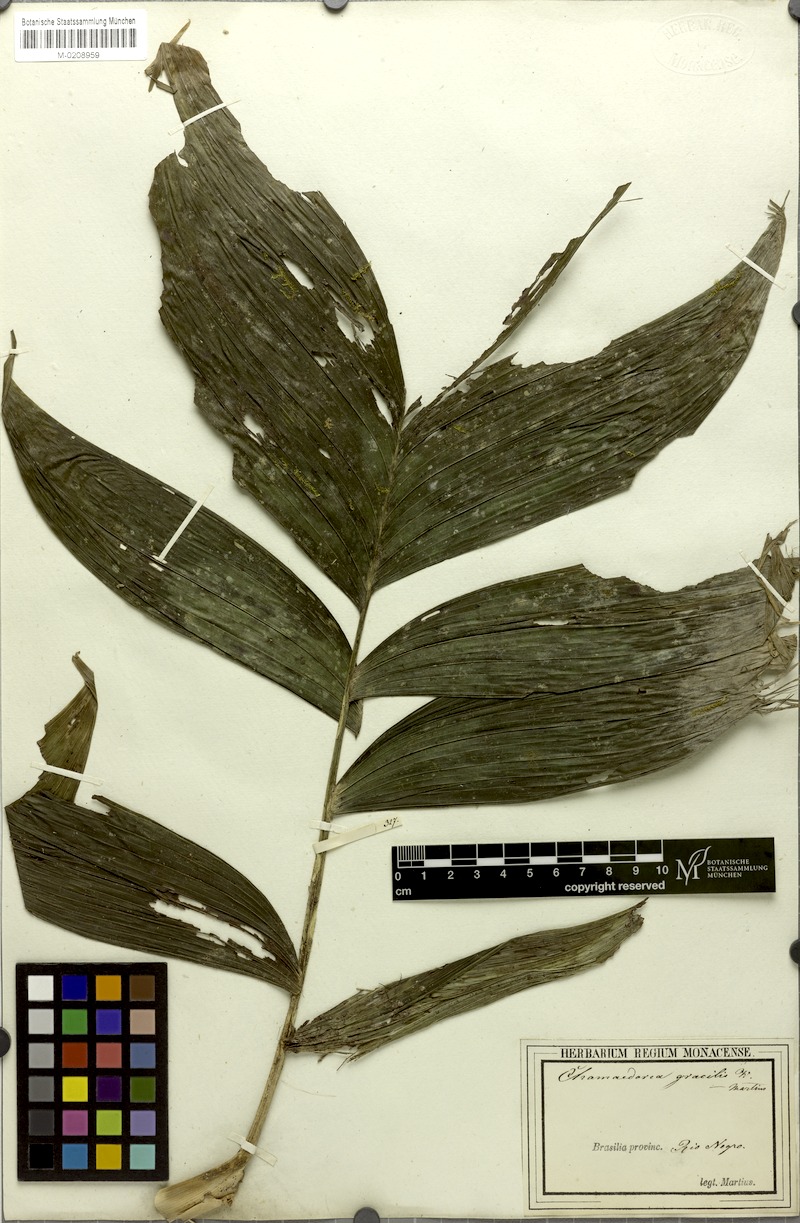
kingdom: Plantae
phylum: Tracheophyta
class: Liliopsida
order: Arecales
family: Arecaceae
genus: Chamaedorea
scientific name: Chamaedorea pinnatifrons
